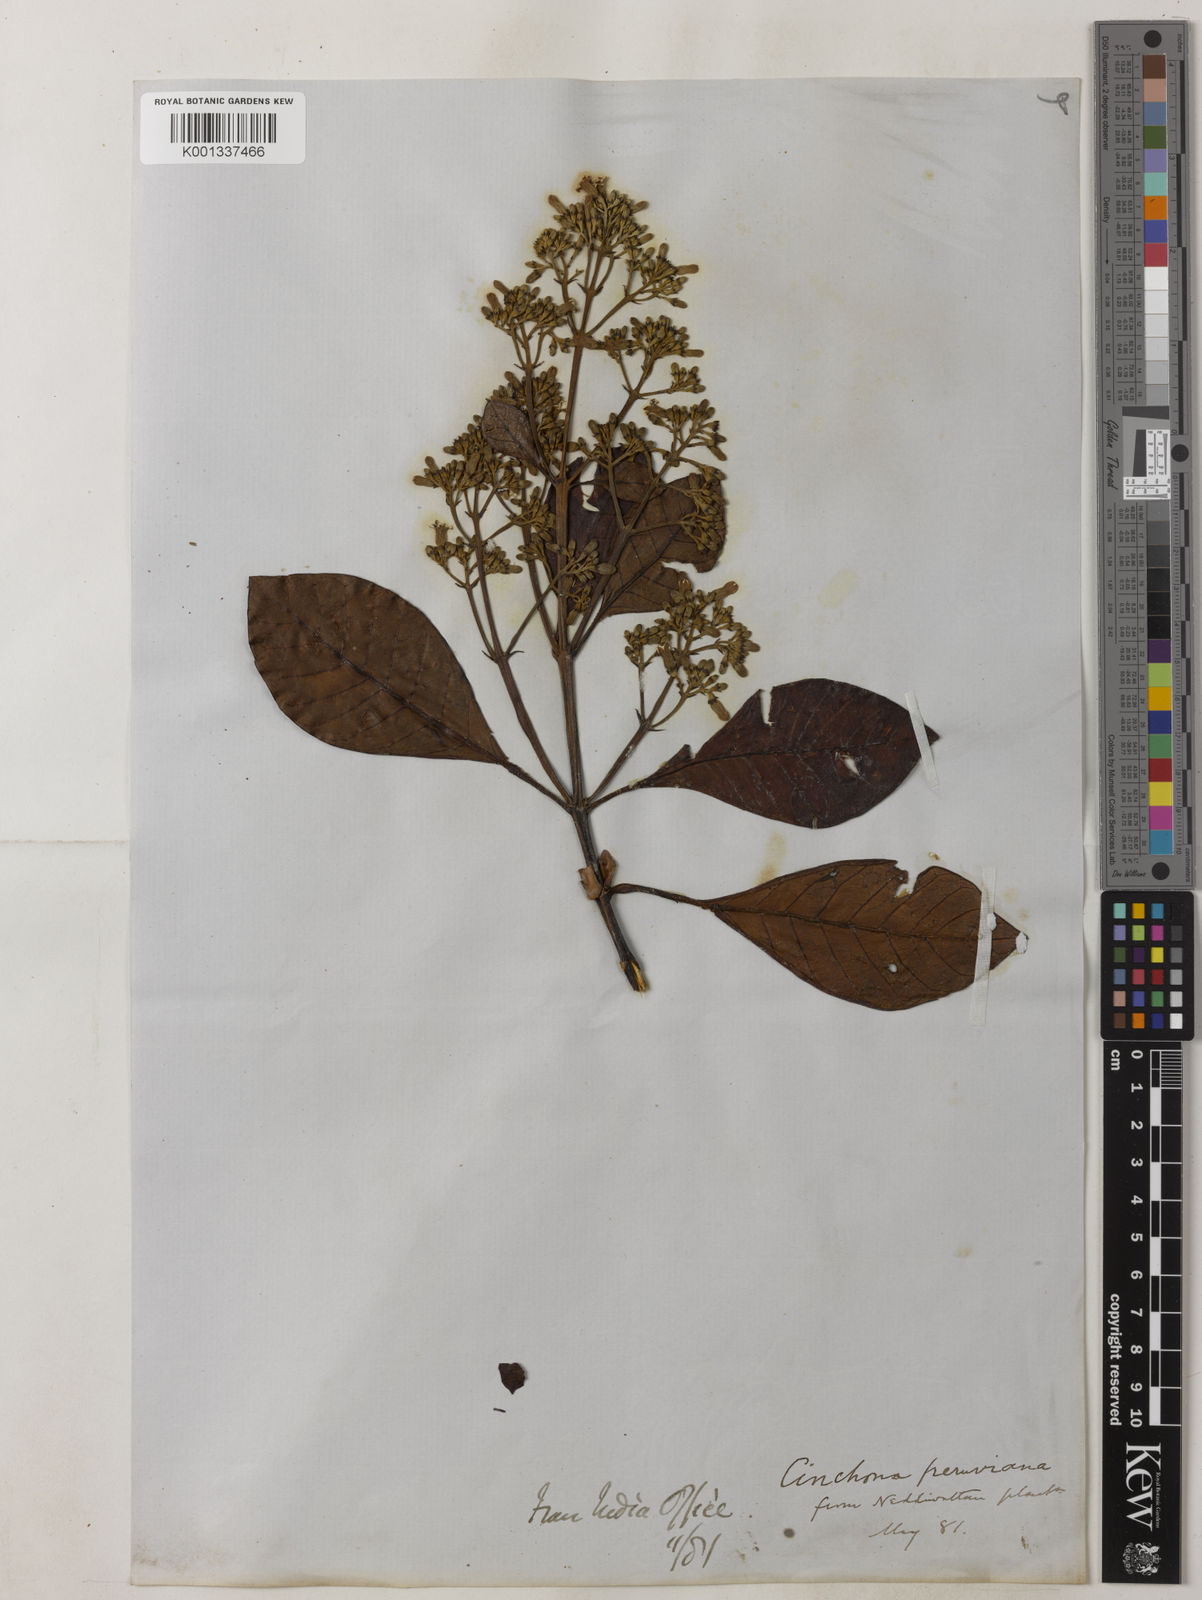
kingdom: Plantae
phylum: Tracheophyta
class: Magnoliopsida
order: Gentianales
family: Rubiaceae
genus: Cinchona
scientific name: Cinchona calisaya
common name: Ledgerbark
